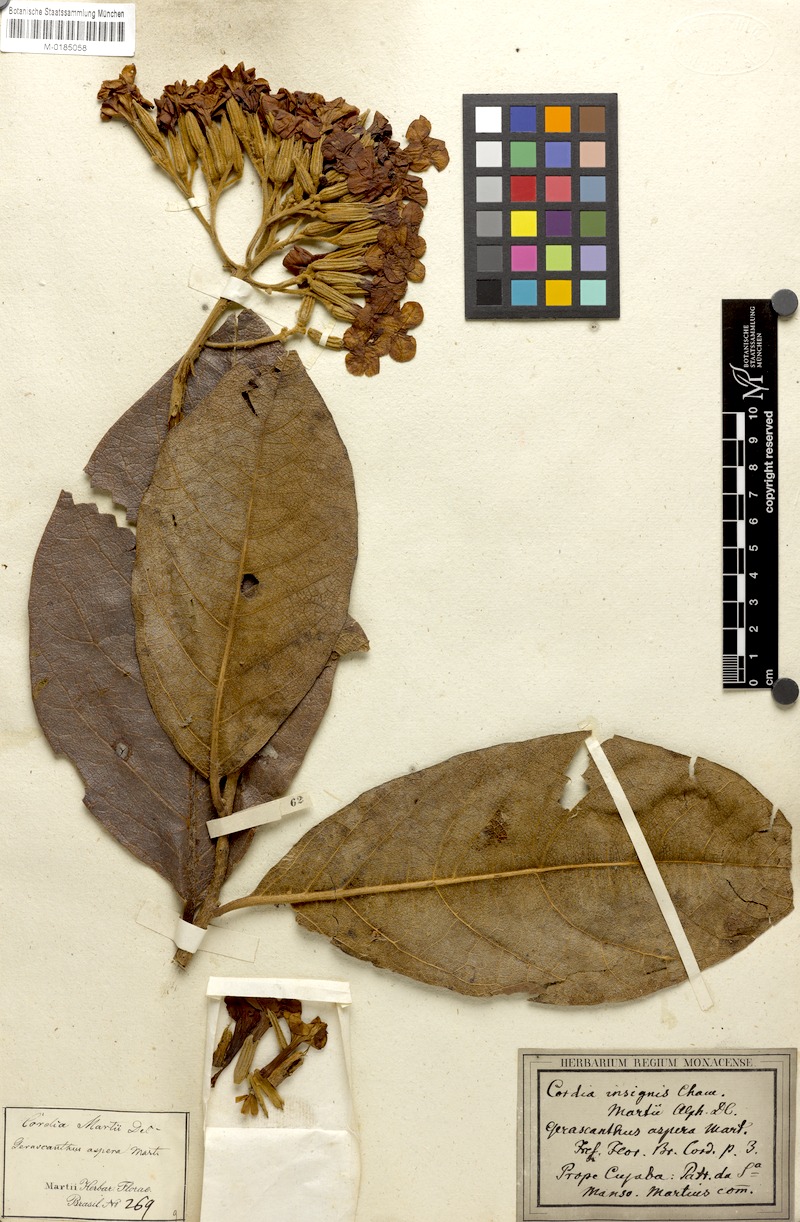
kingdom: Plantae
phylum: Tracheophyta
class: Magnoliopsida
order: Boraginales
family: Cordiaceae
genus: Cordia
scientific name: Cordia insignis
